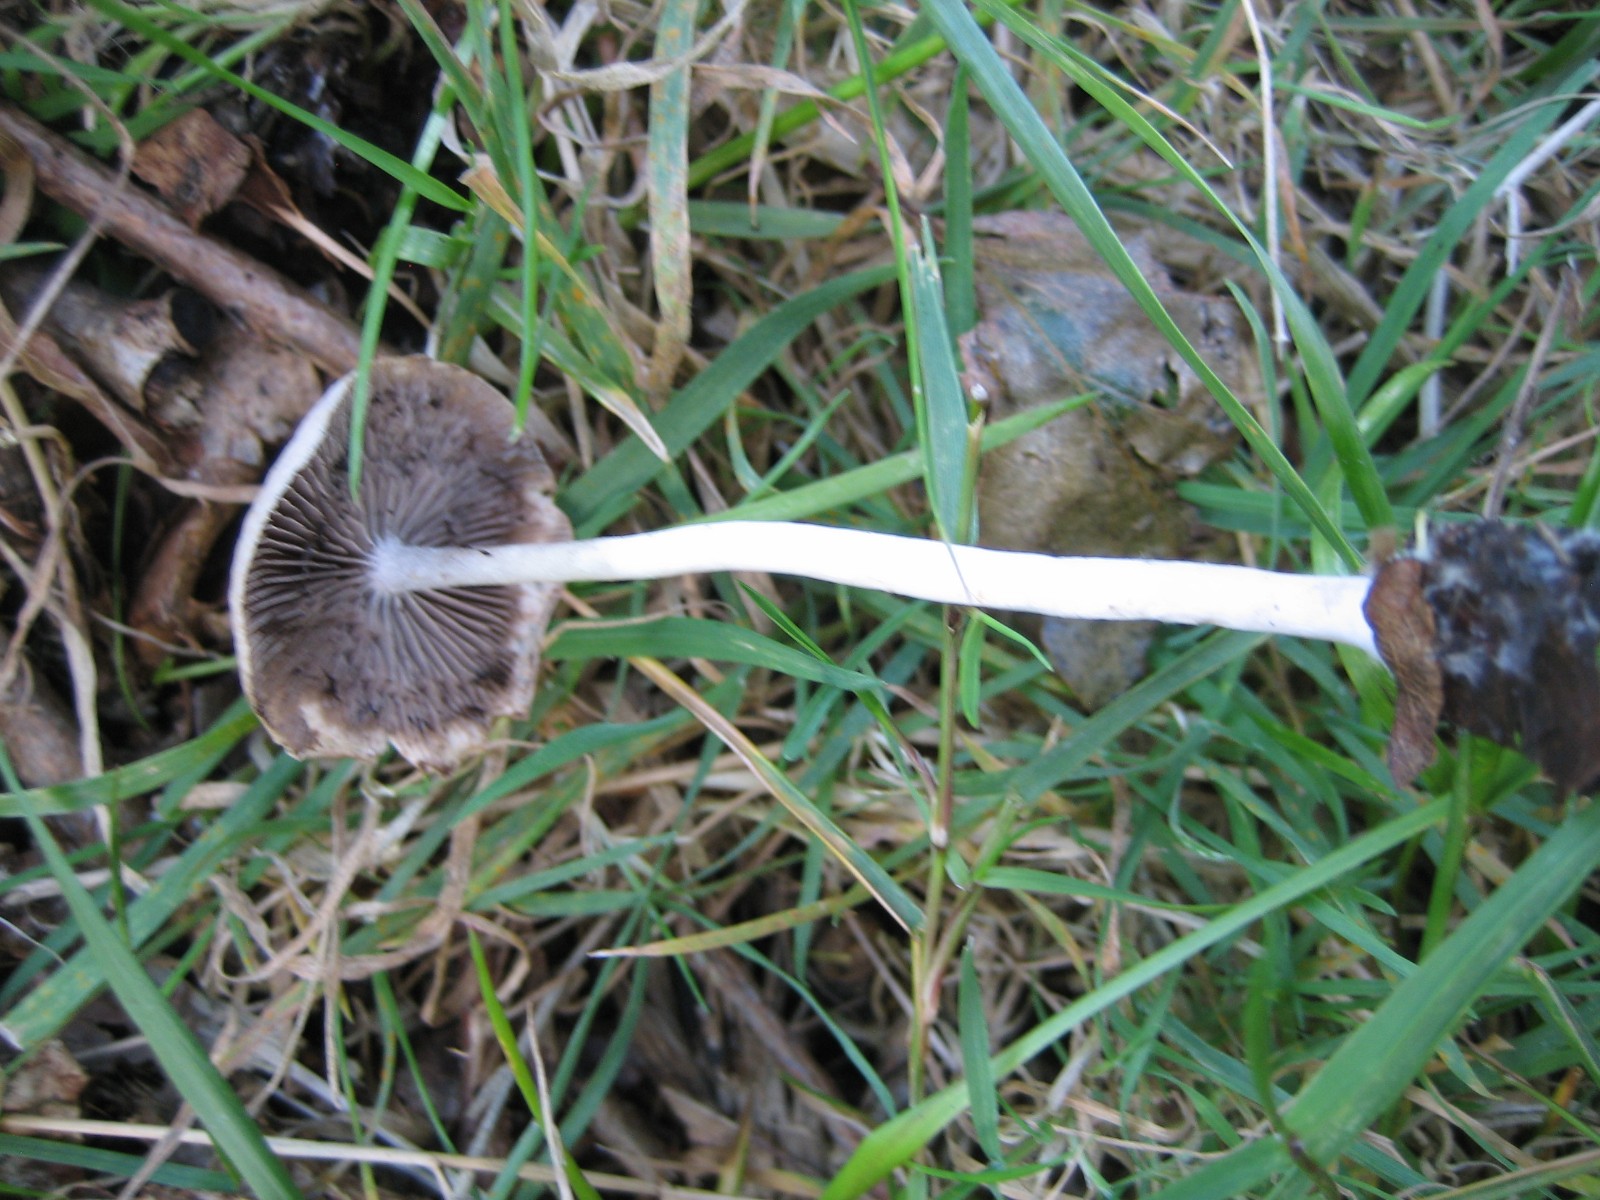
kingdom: Fungi
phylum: Basidiomycota
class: Agaricomycetes
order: Agaricales
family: Psathyrellaceae
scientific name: Psathyrellaceae
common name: mørkhatfamilien
